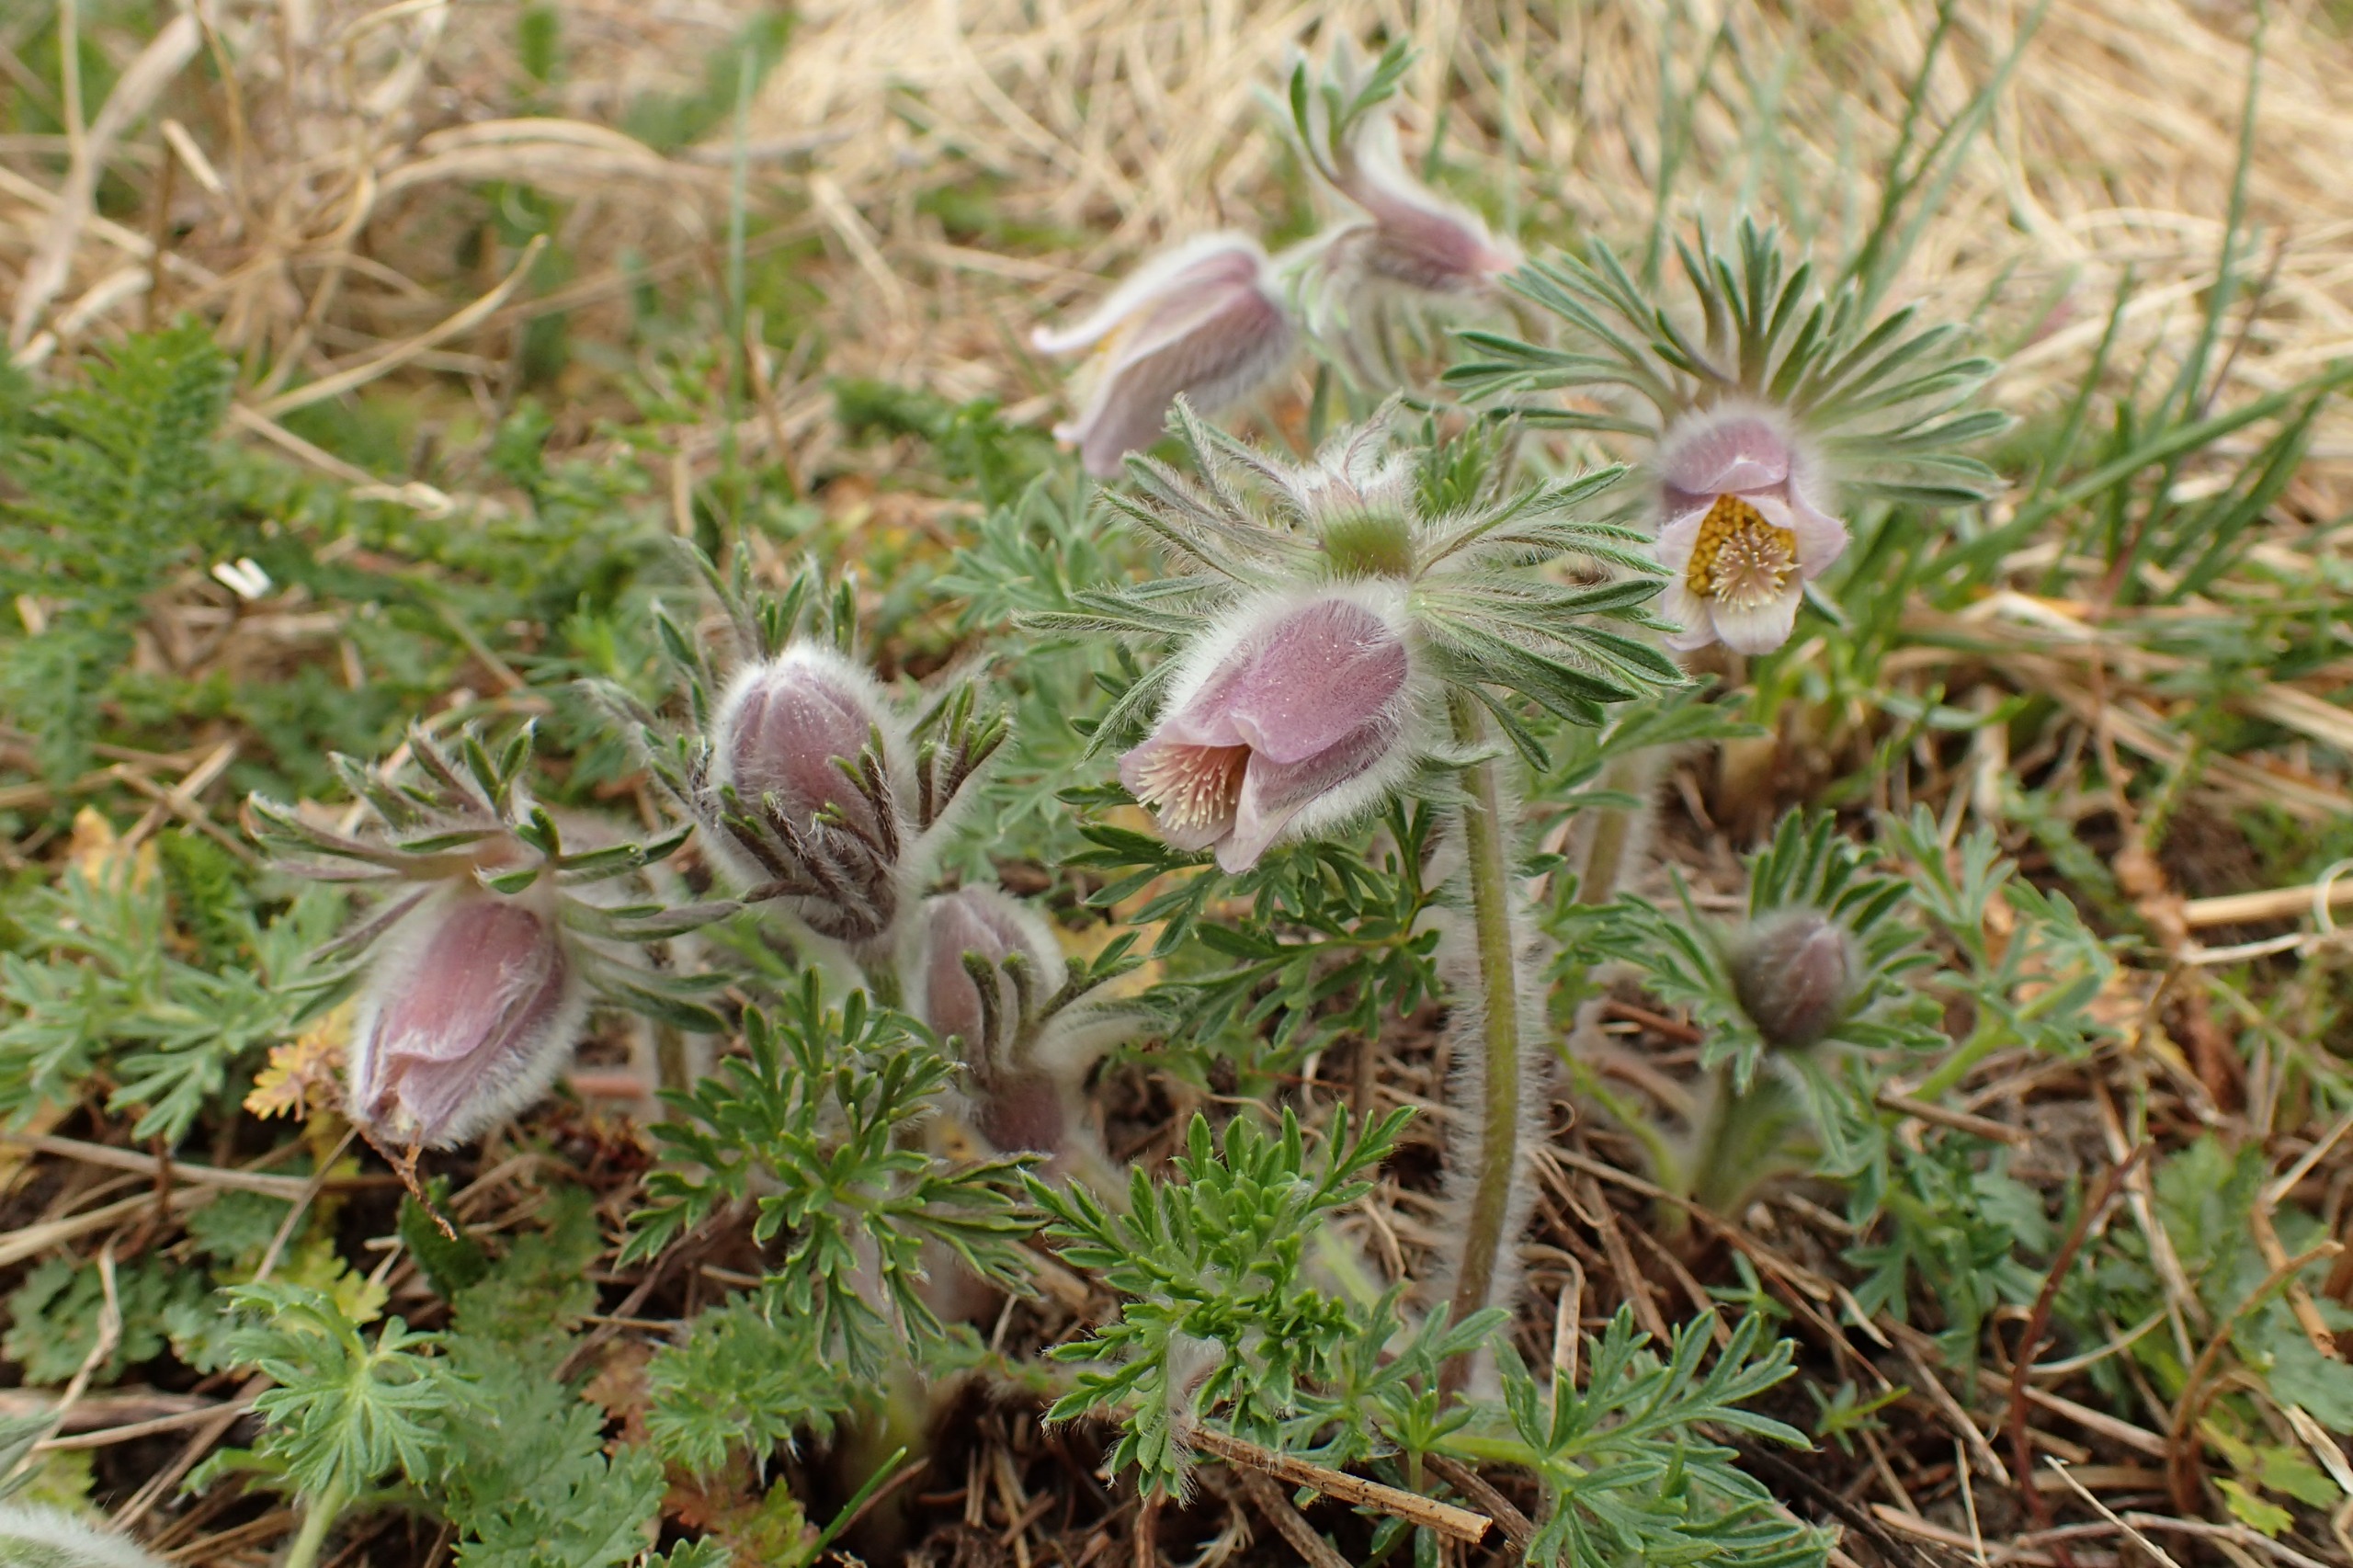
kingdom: Plantae
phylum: Tracheophyta
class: Magnoliopsida
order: Ranunculales
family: Ranunculaceae
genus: Pulsatilla
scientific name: Pulsatilla pratensis
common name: Nikkende kobjælde
